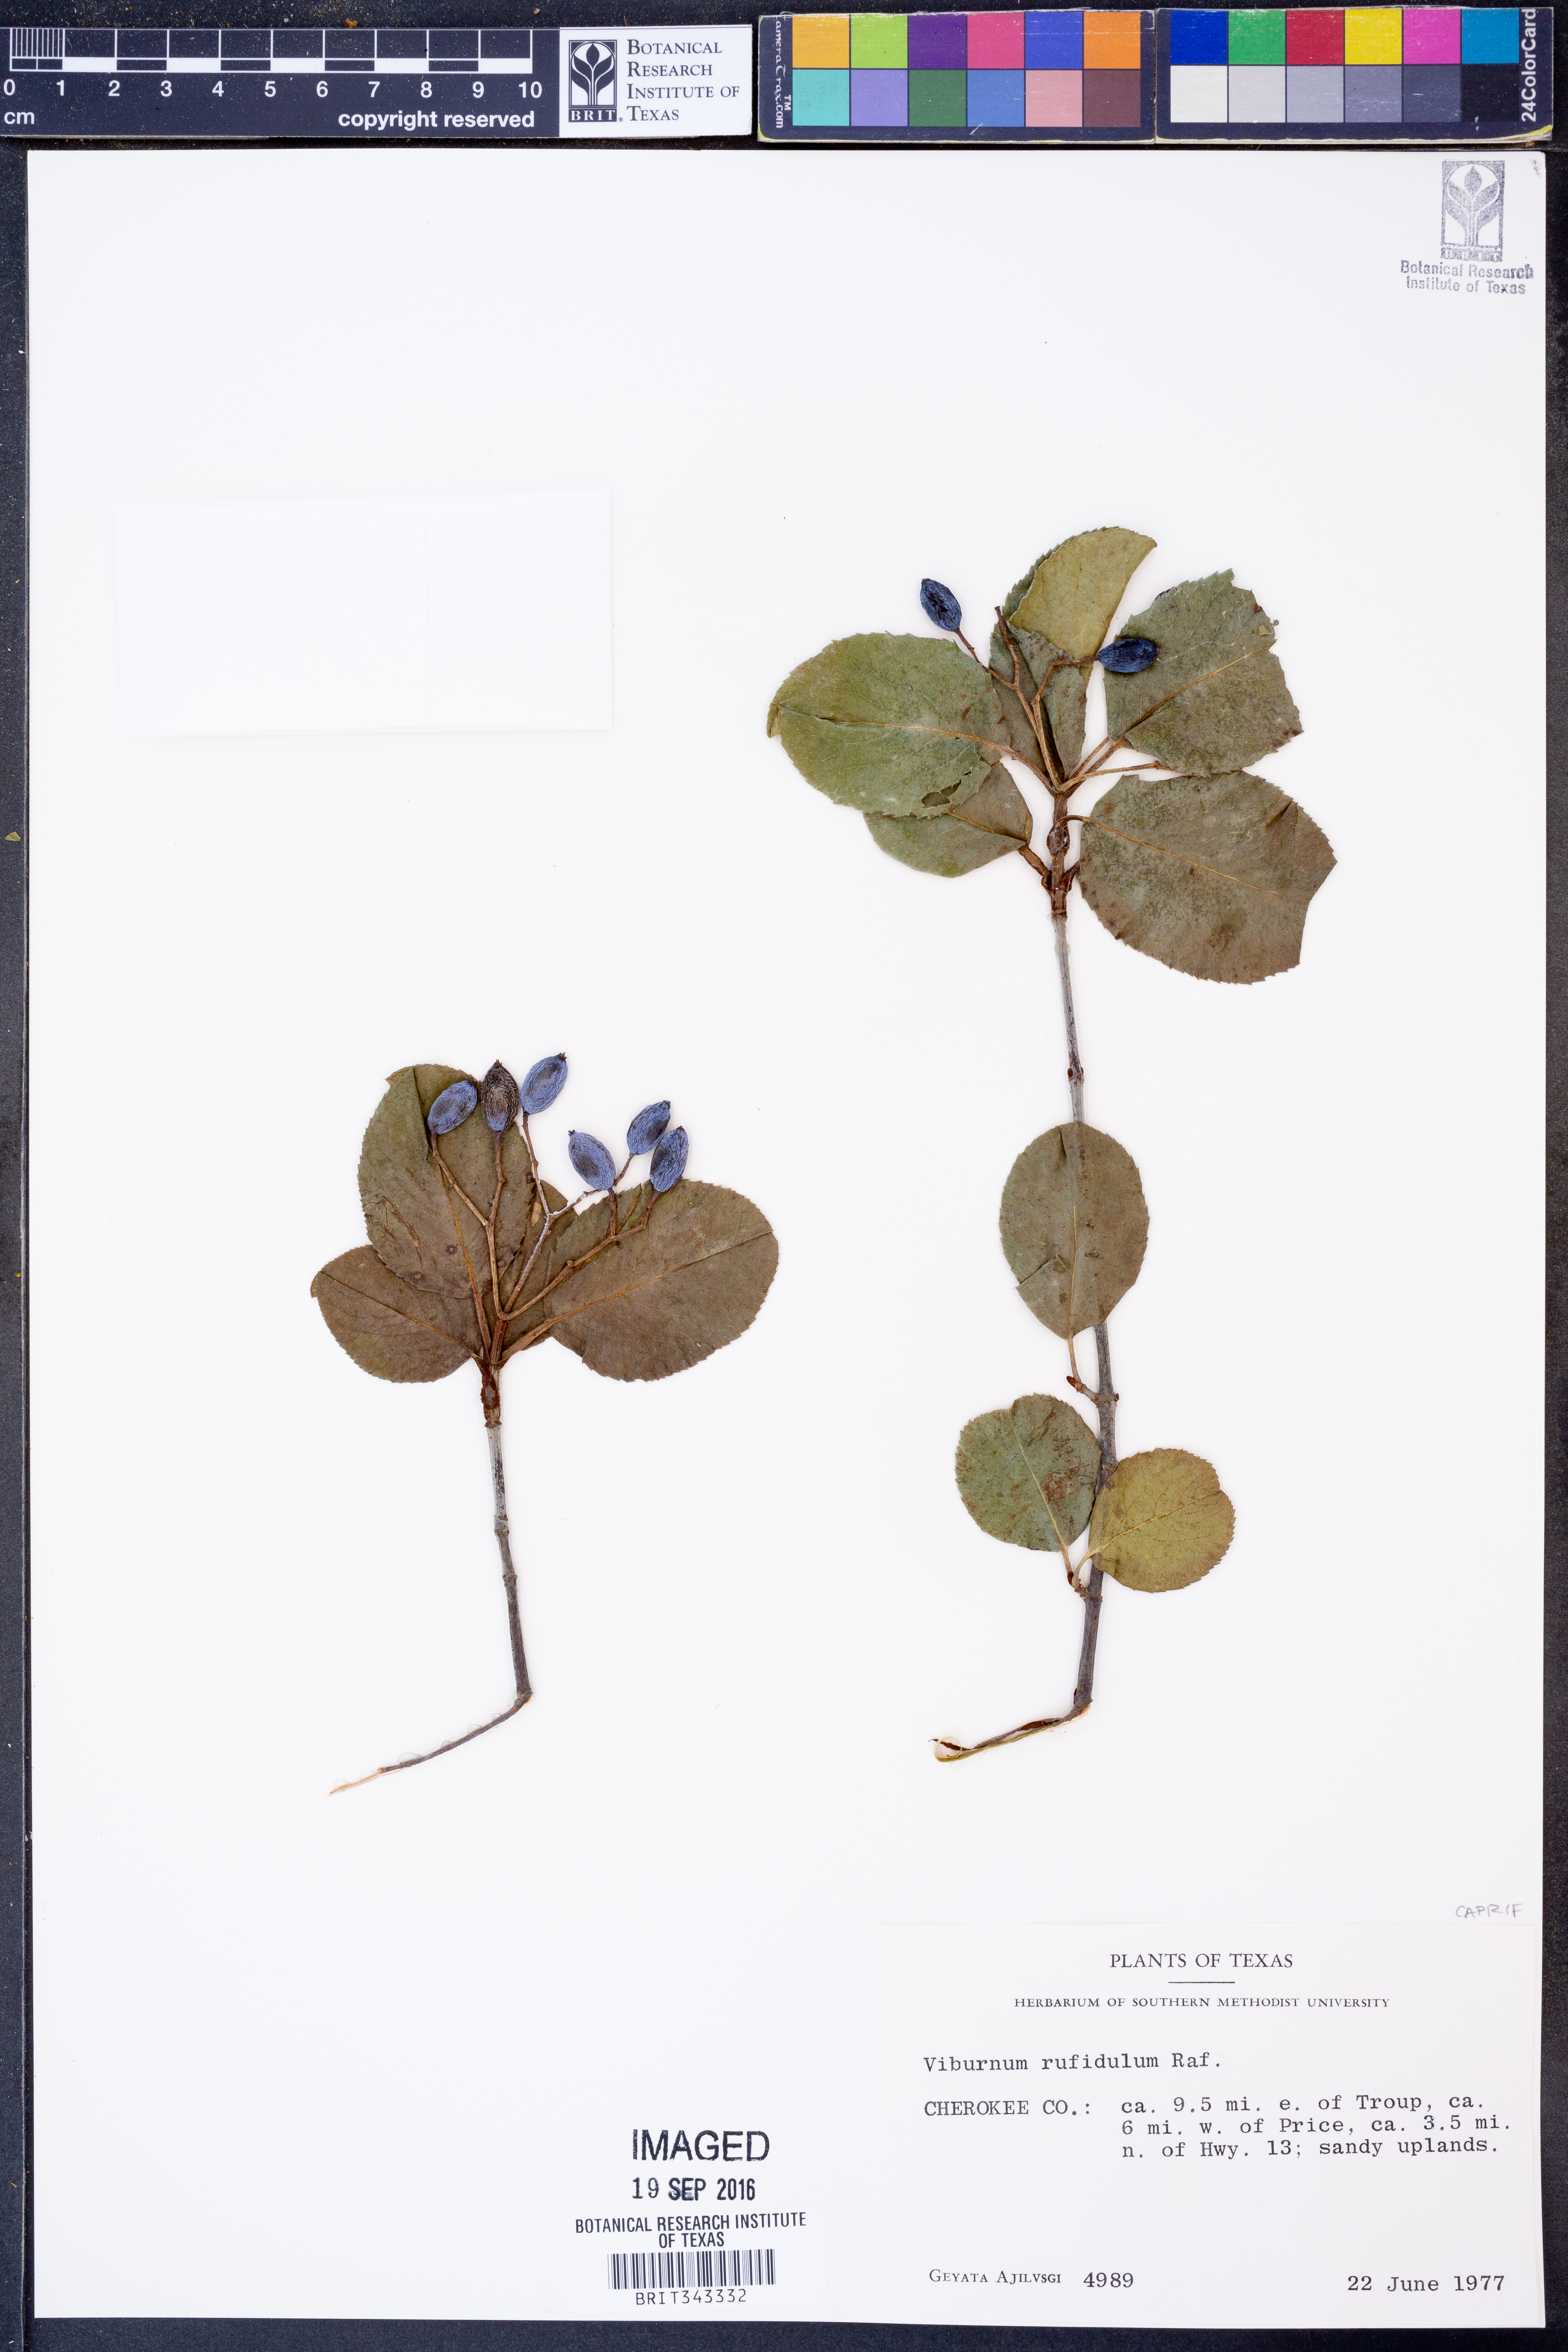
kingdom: Plantae
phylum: Tracheophyta
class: Magnoliopsida
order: Dipsacales
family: Viburnaceae
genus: Viburnum
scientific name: Viburnum rufidulum
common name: Blue haw
